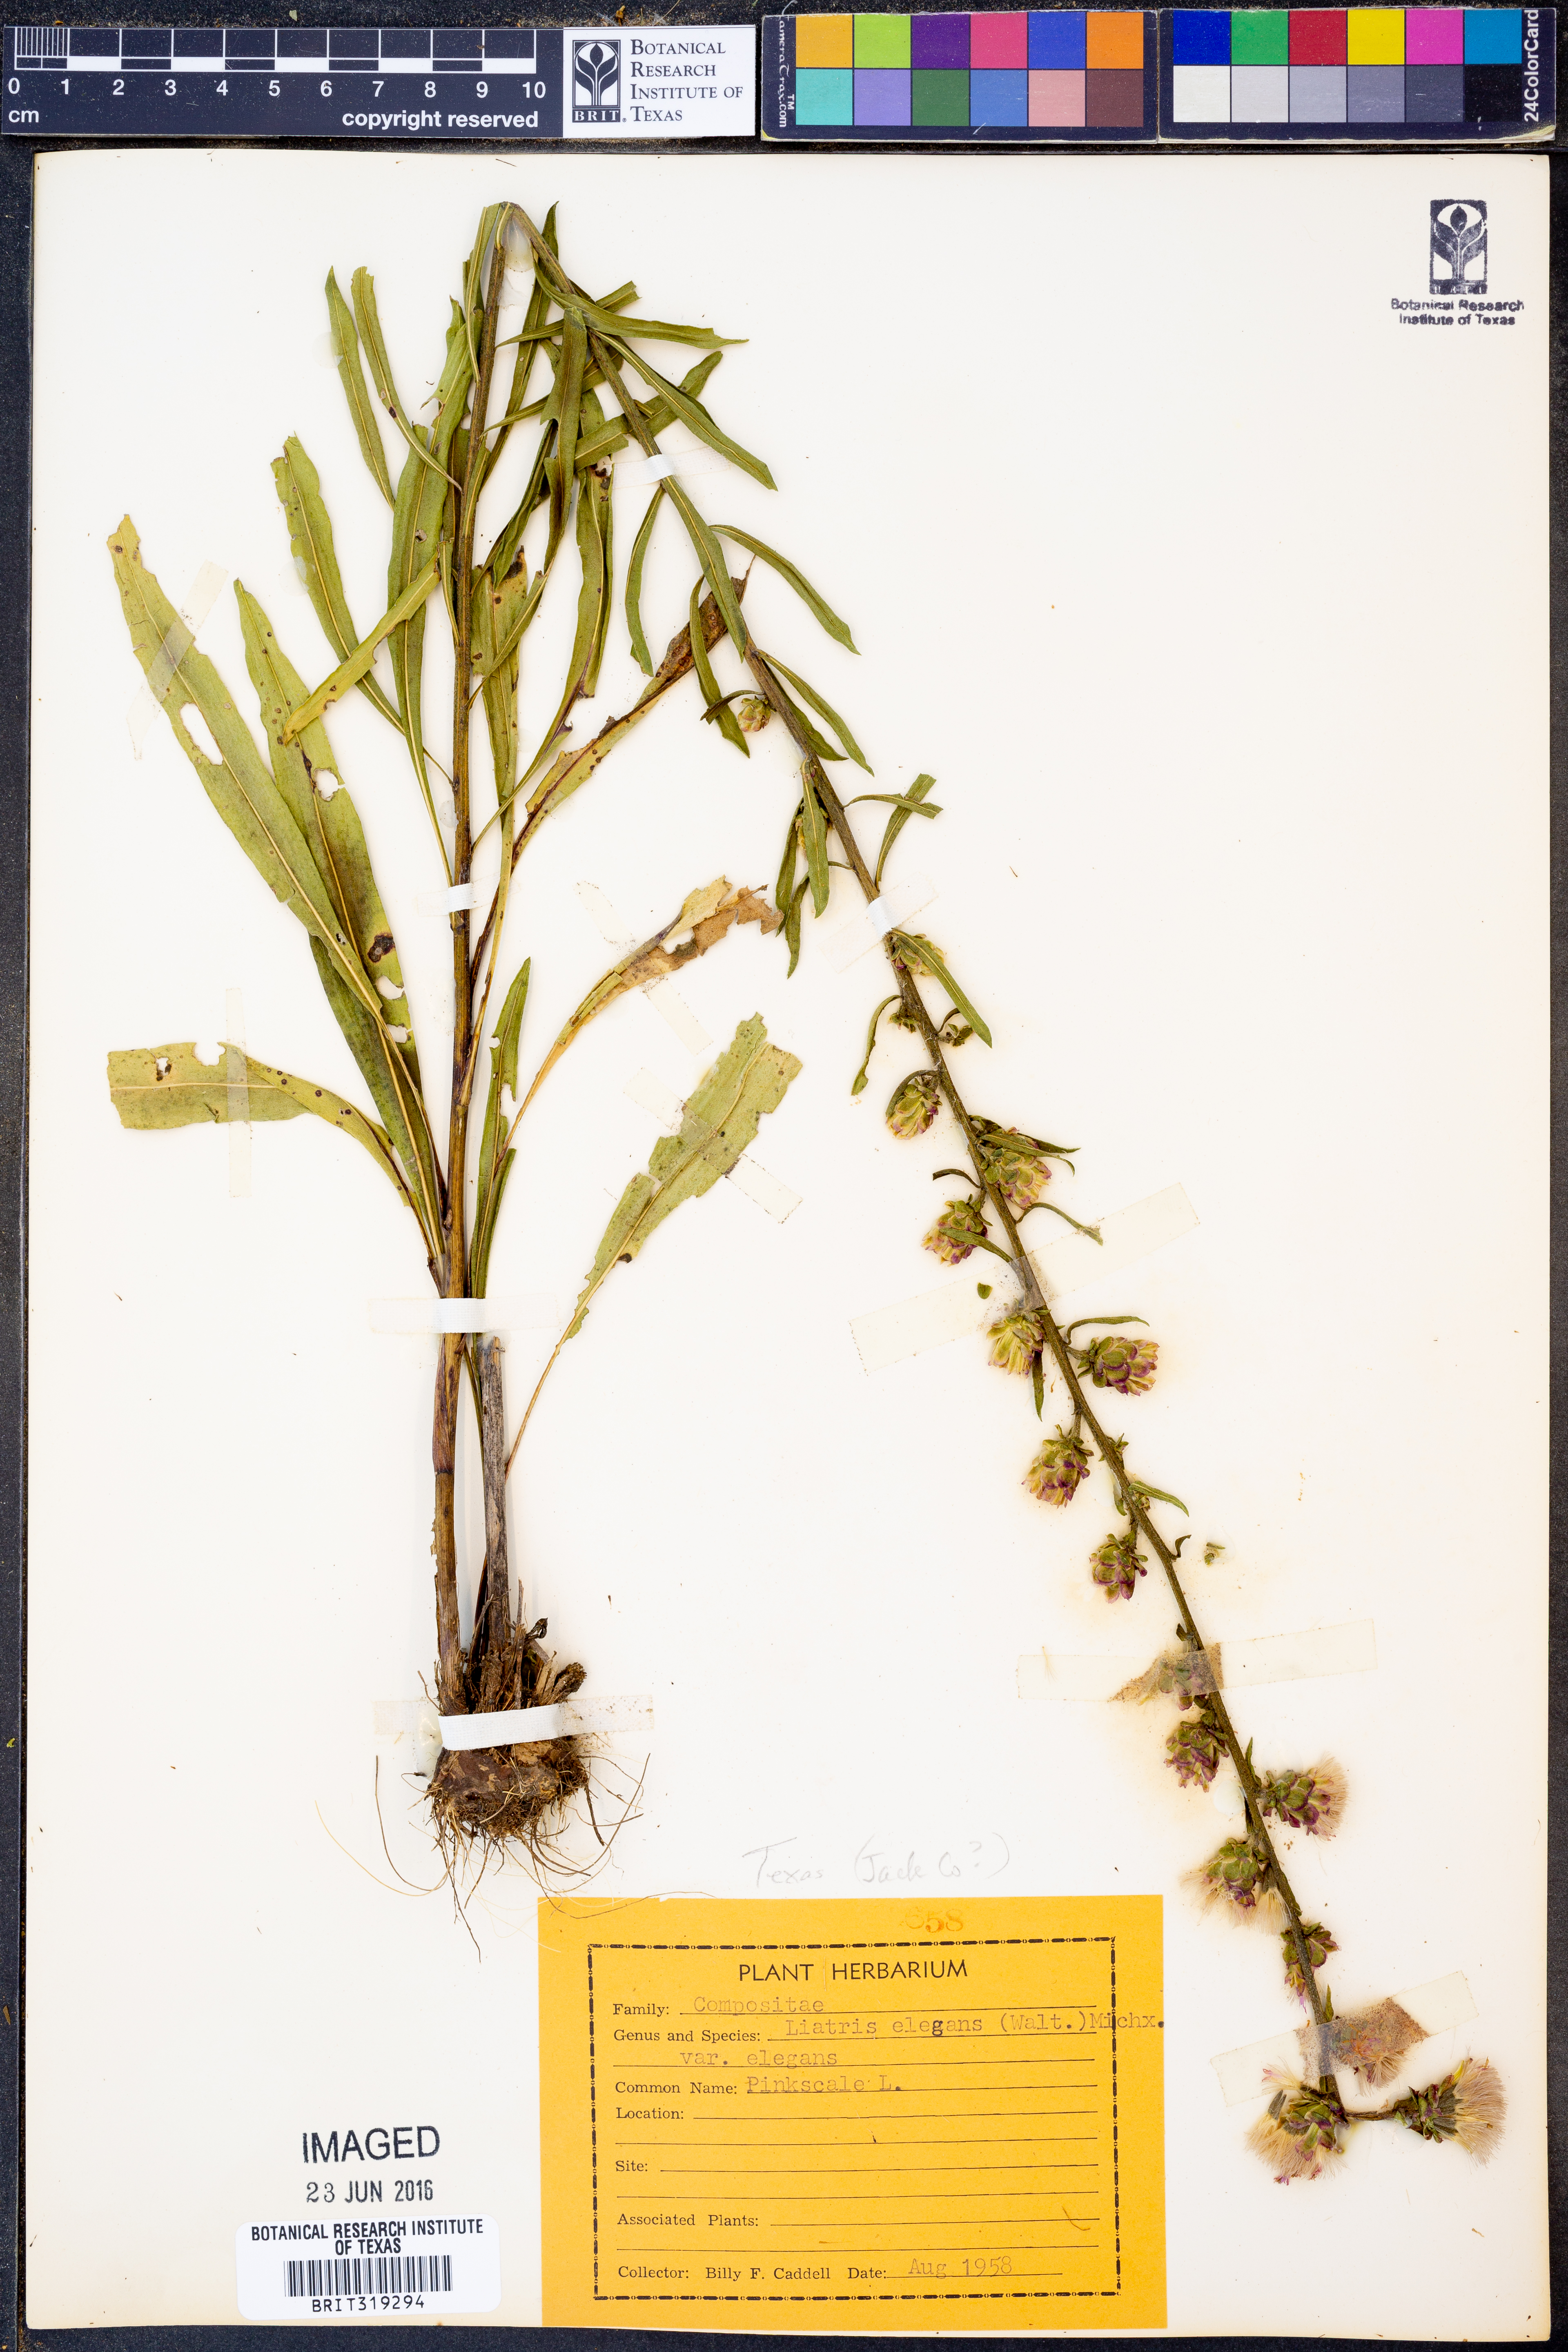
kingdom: Plantae
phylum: Tracheophyta
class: Magnoliopsida
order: Asterales
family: Asteraceae
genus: Liatris
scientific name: Liatris elegans
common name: Pinkscale gayfeather
